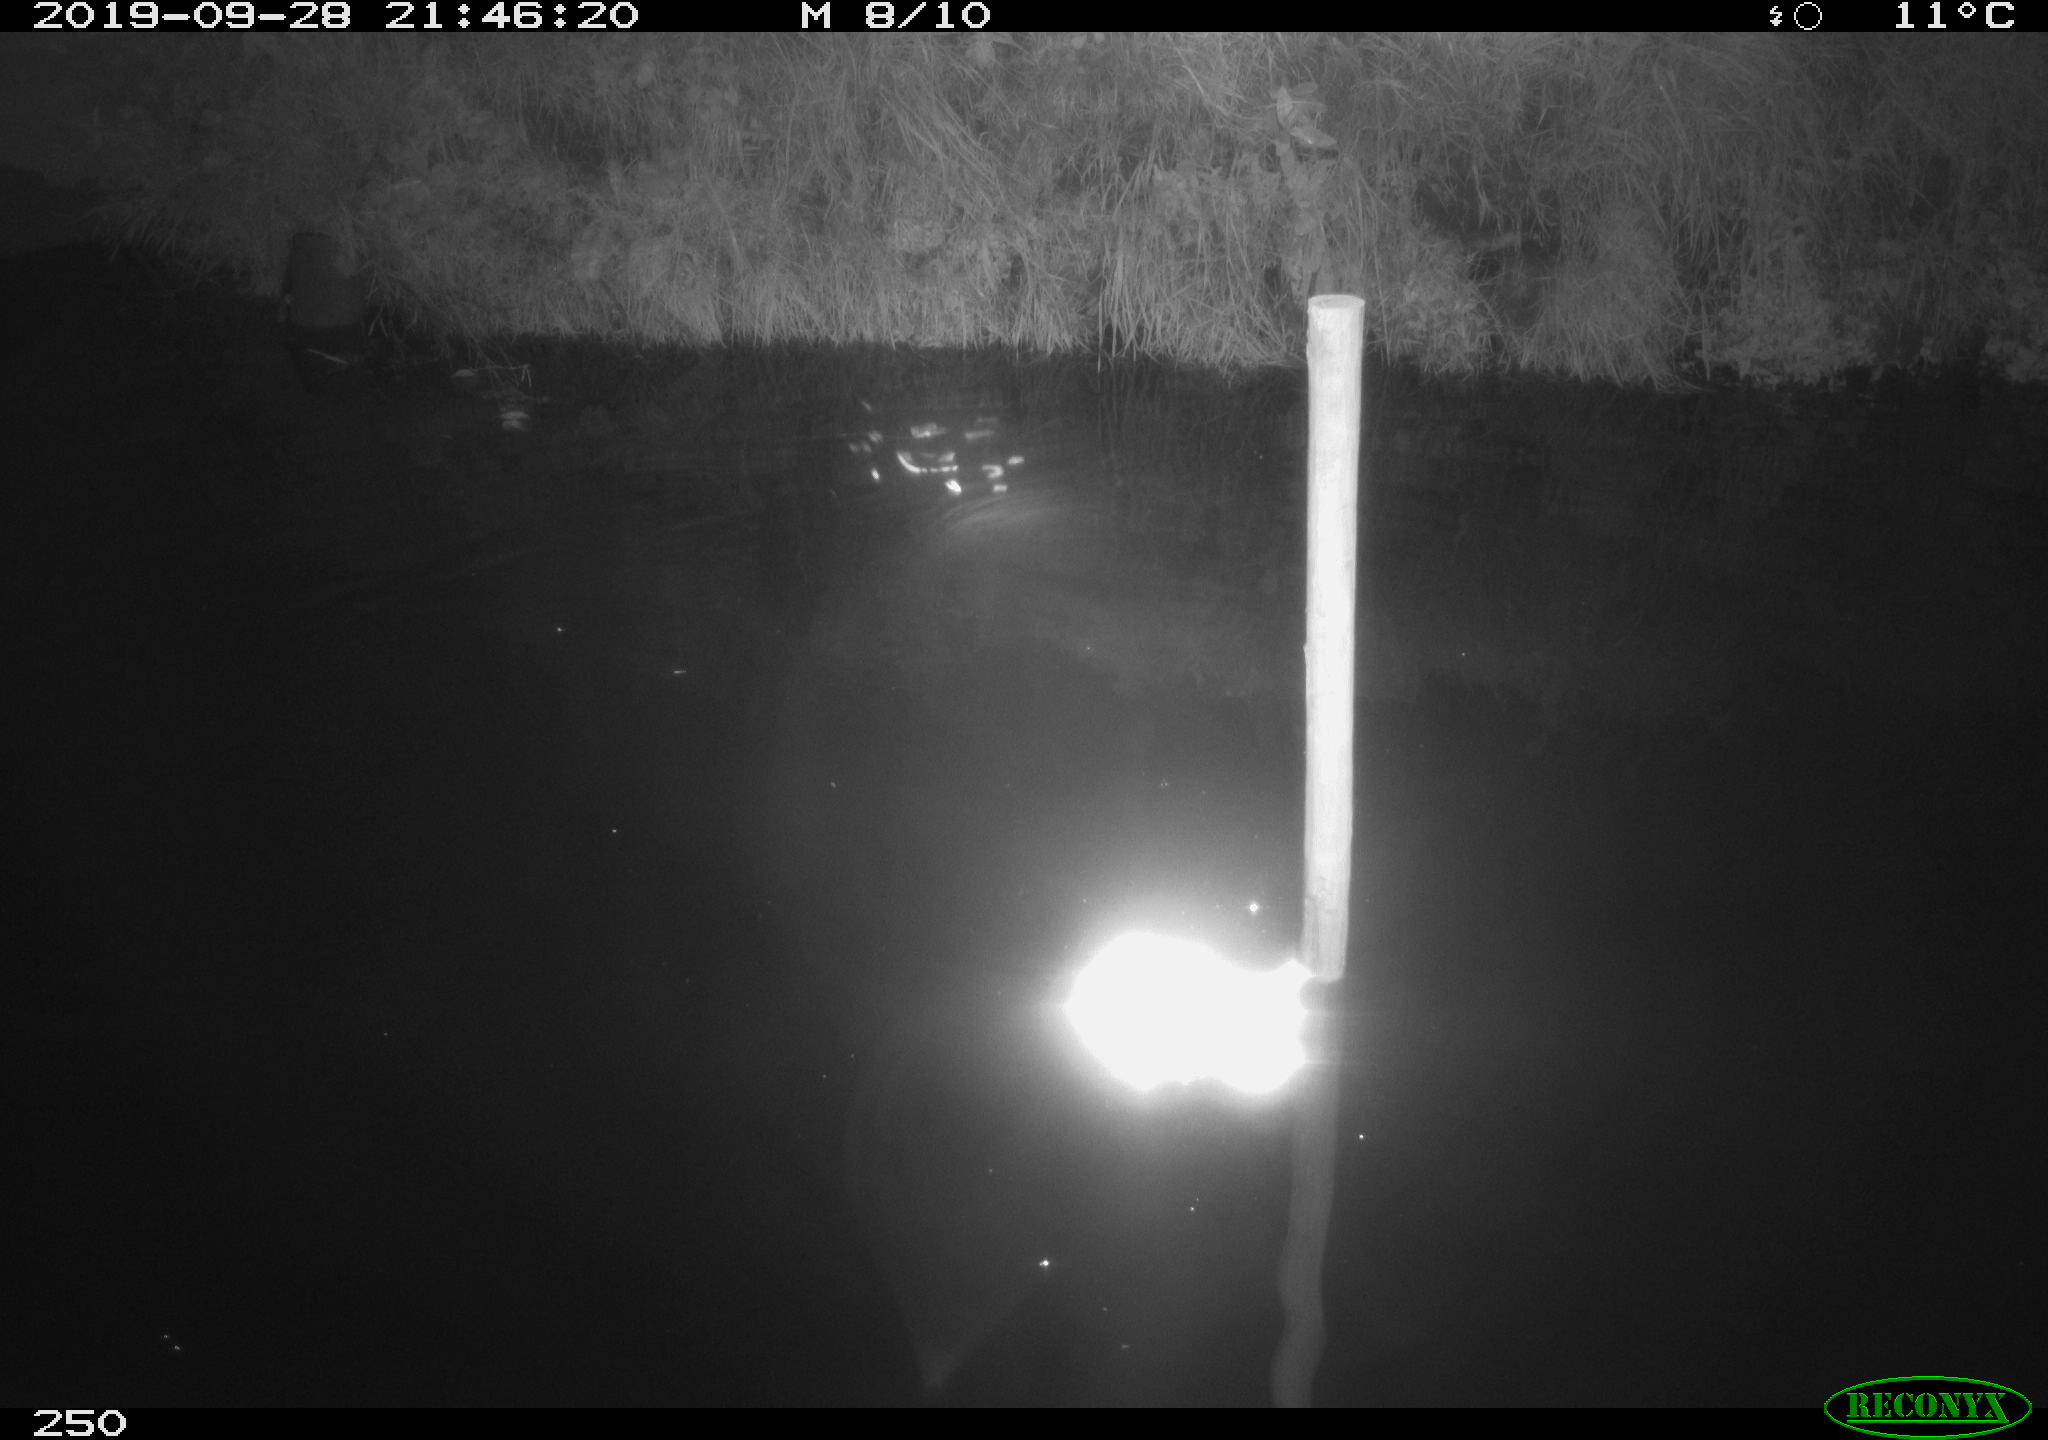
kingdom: Animalia
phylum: Chordata
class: Aves
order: Anseriformes
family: Anatidae
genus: Anas
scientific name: Anas platyrhynchos
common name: Mallard
